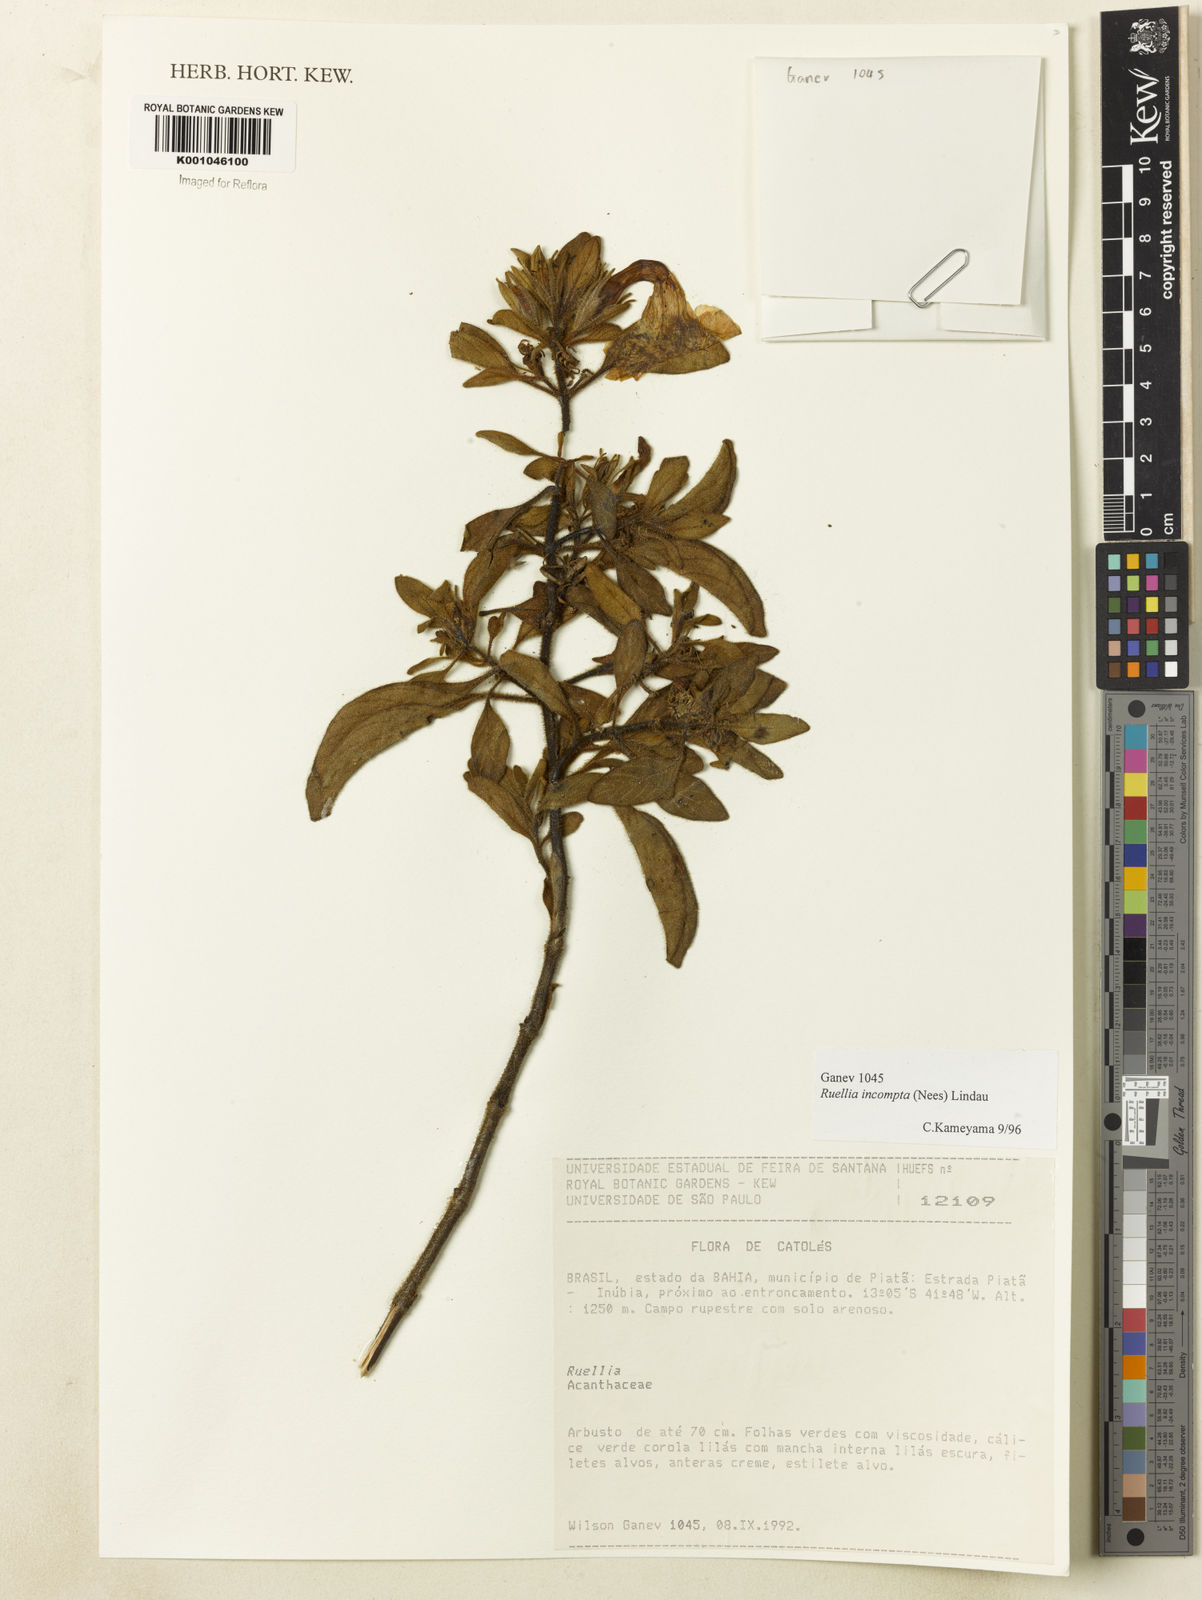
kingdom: Plantae
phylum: Tracheophyta
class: Magnoliopsida
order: Lamiales
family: Acanthaceae
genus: Ruellia
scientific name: Ruellia
